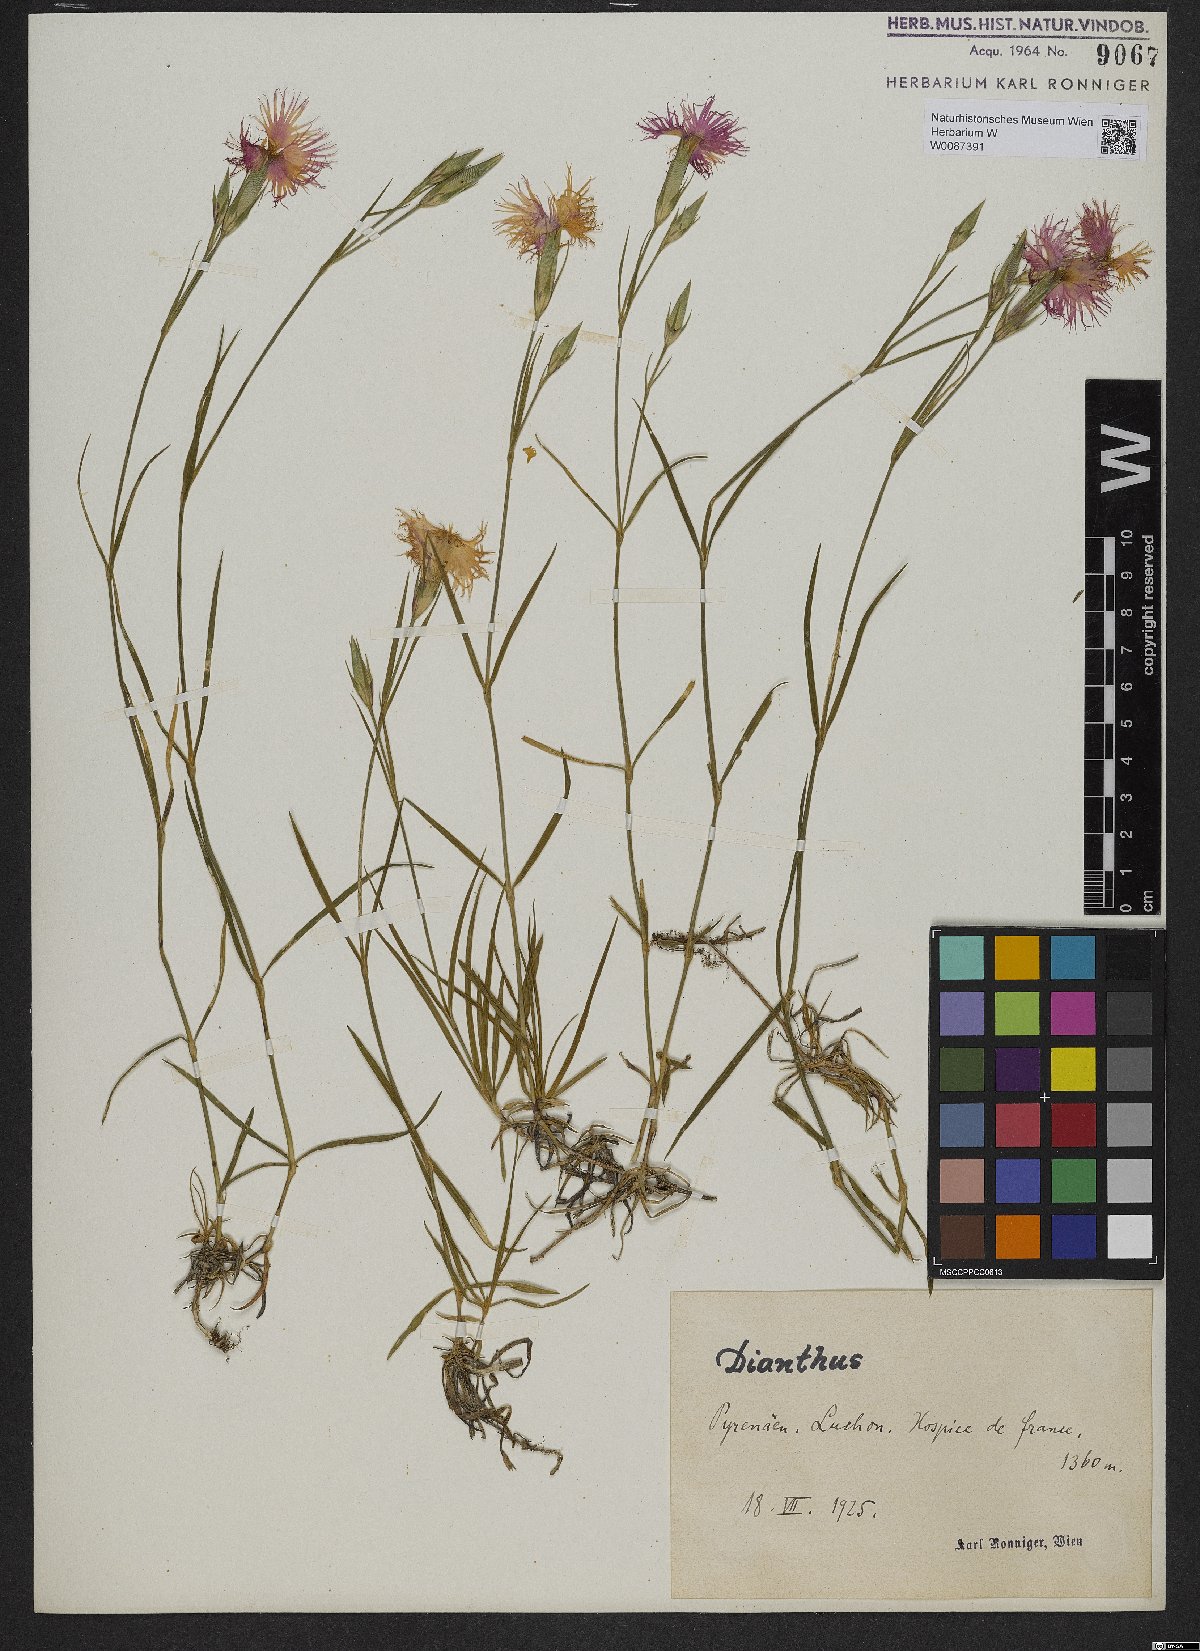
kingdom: Plantae
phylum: Tracheophyta
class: Magnoliopsida
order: Caryophyllales
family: Caryophyllaceae
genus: Dianthus
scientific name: Dianthus
